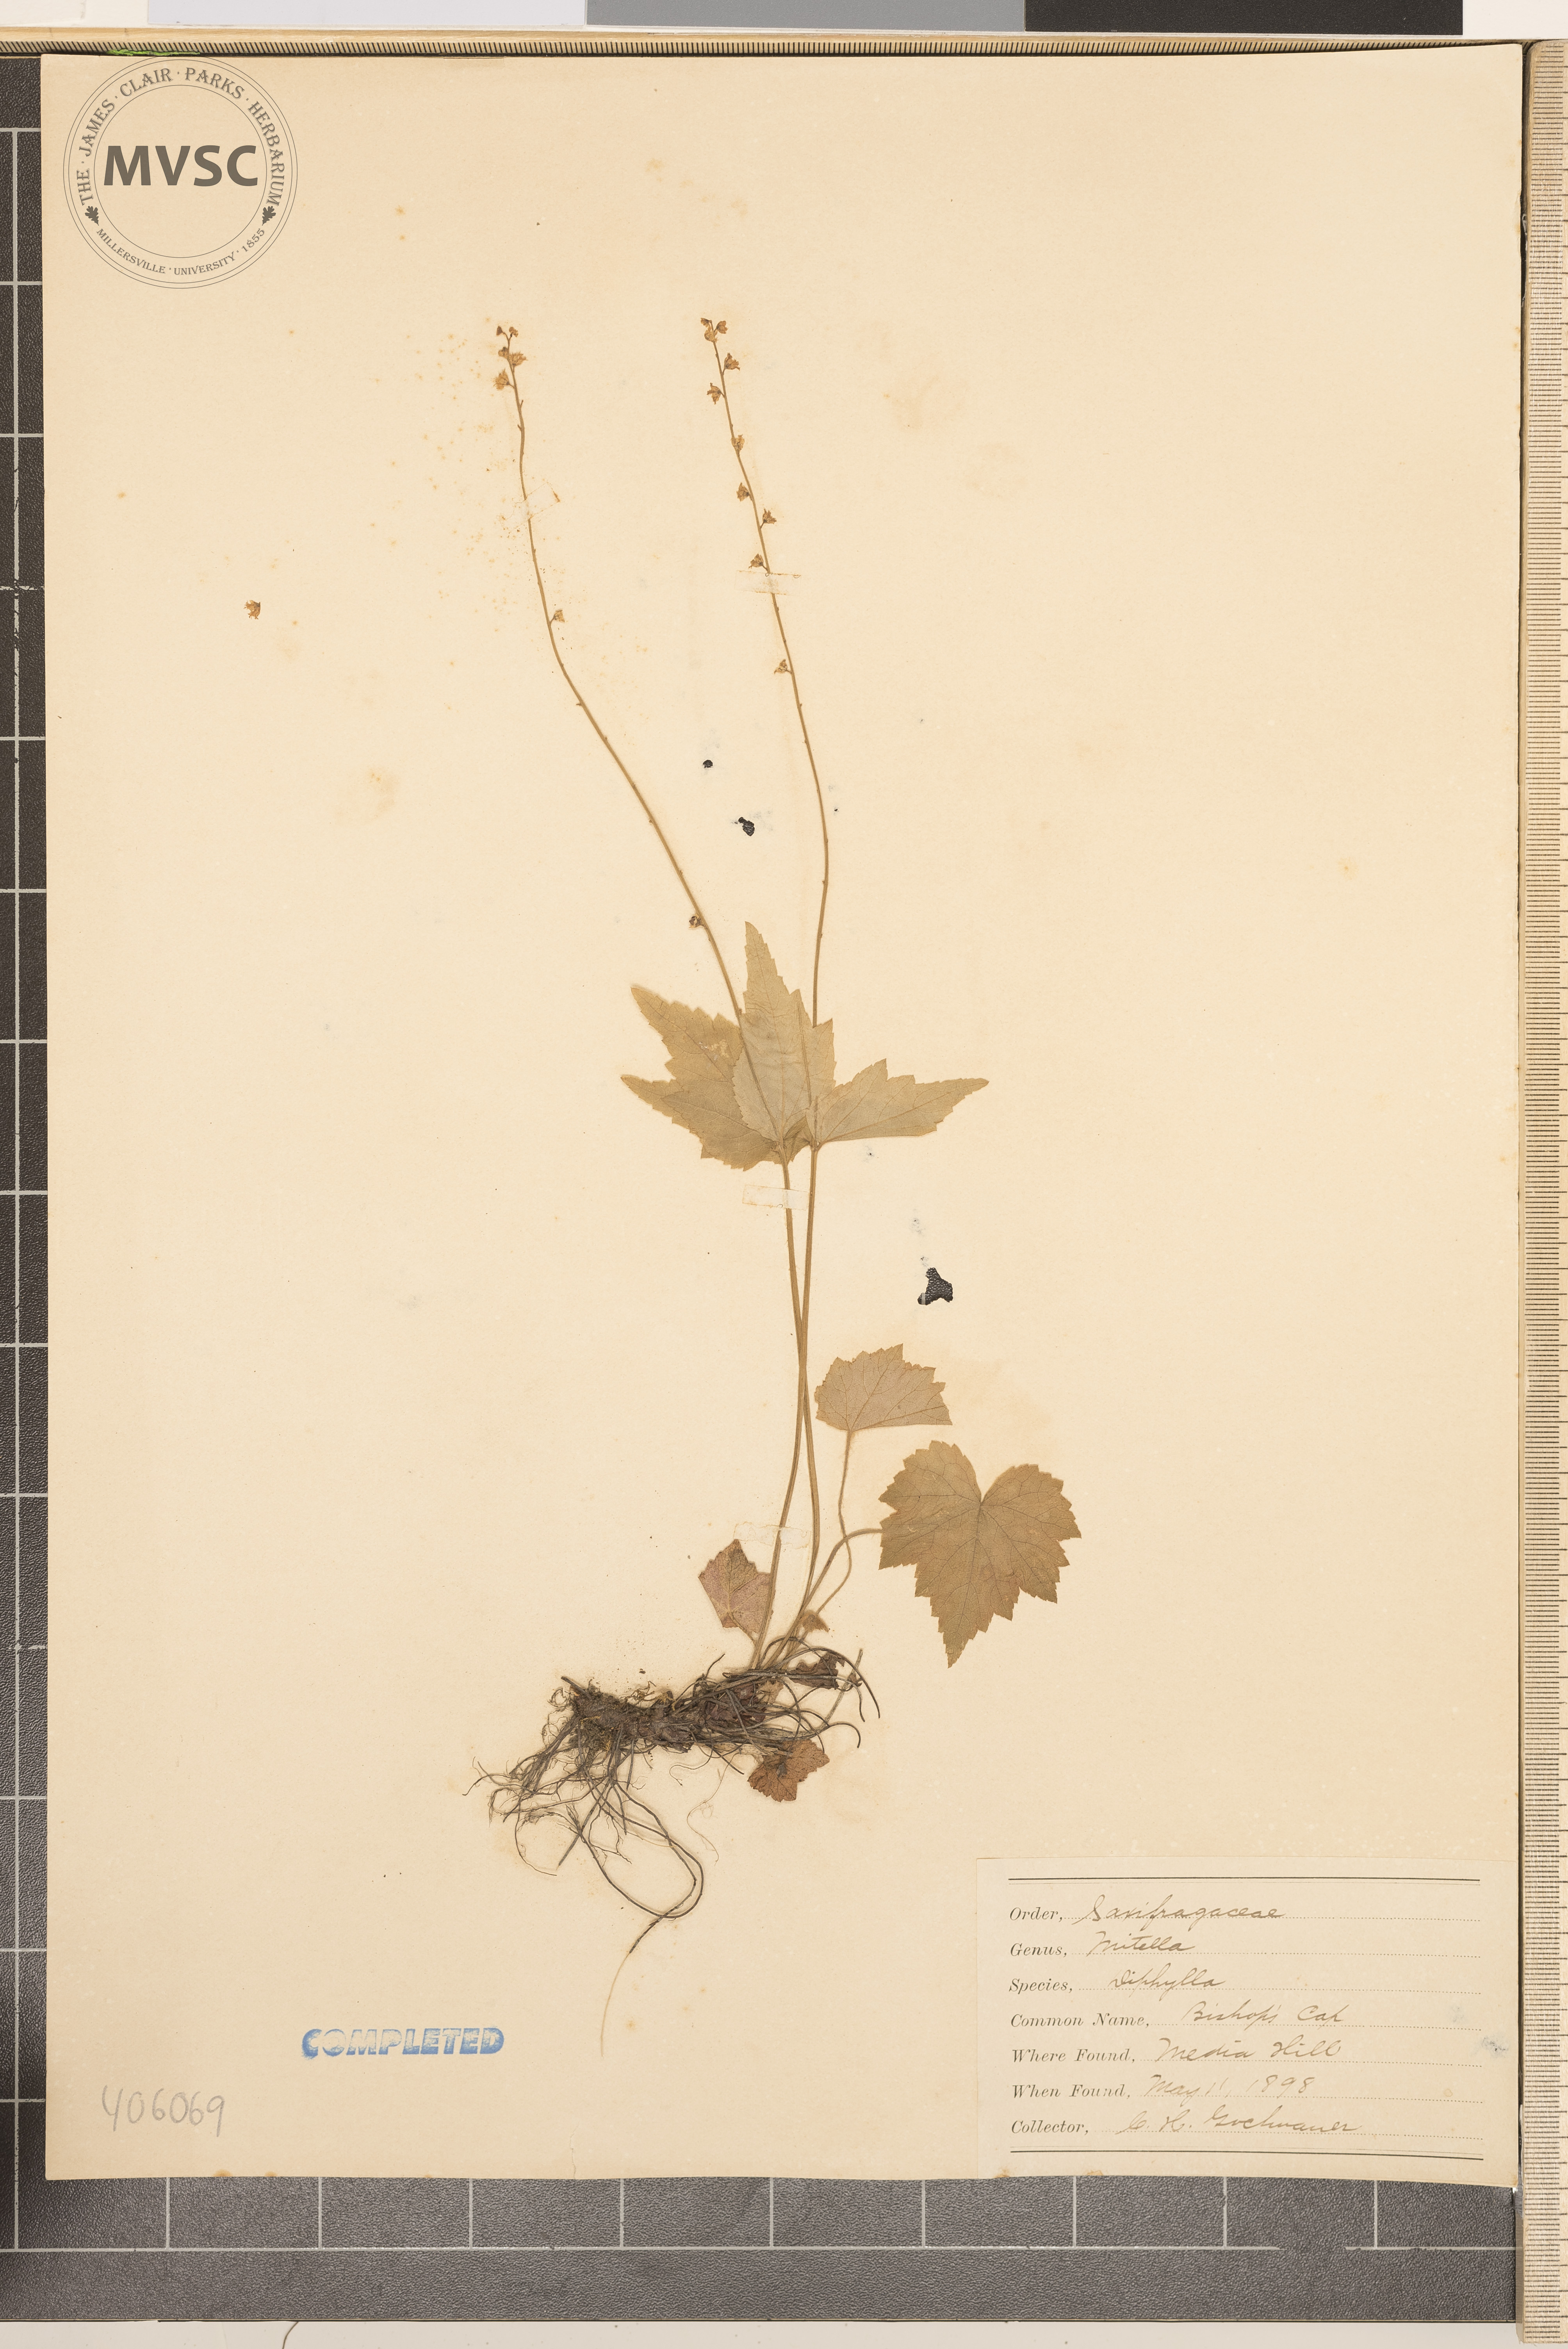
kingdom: Plantae
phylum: Tracheophyta
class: Magnoliopsida
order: Saxifragales
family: Saxifragaceae
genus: Mitella
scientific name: Mitella diphylla
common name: Coolwort
